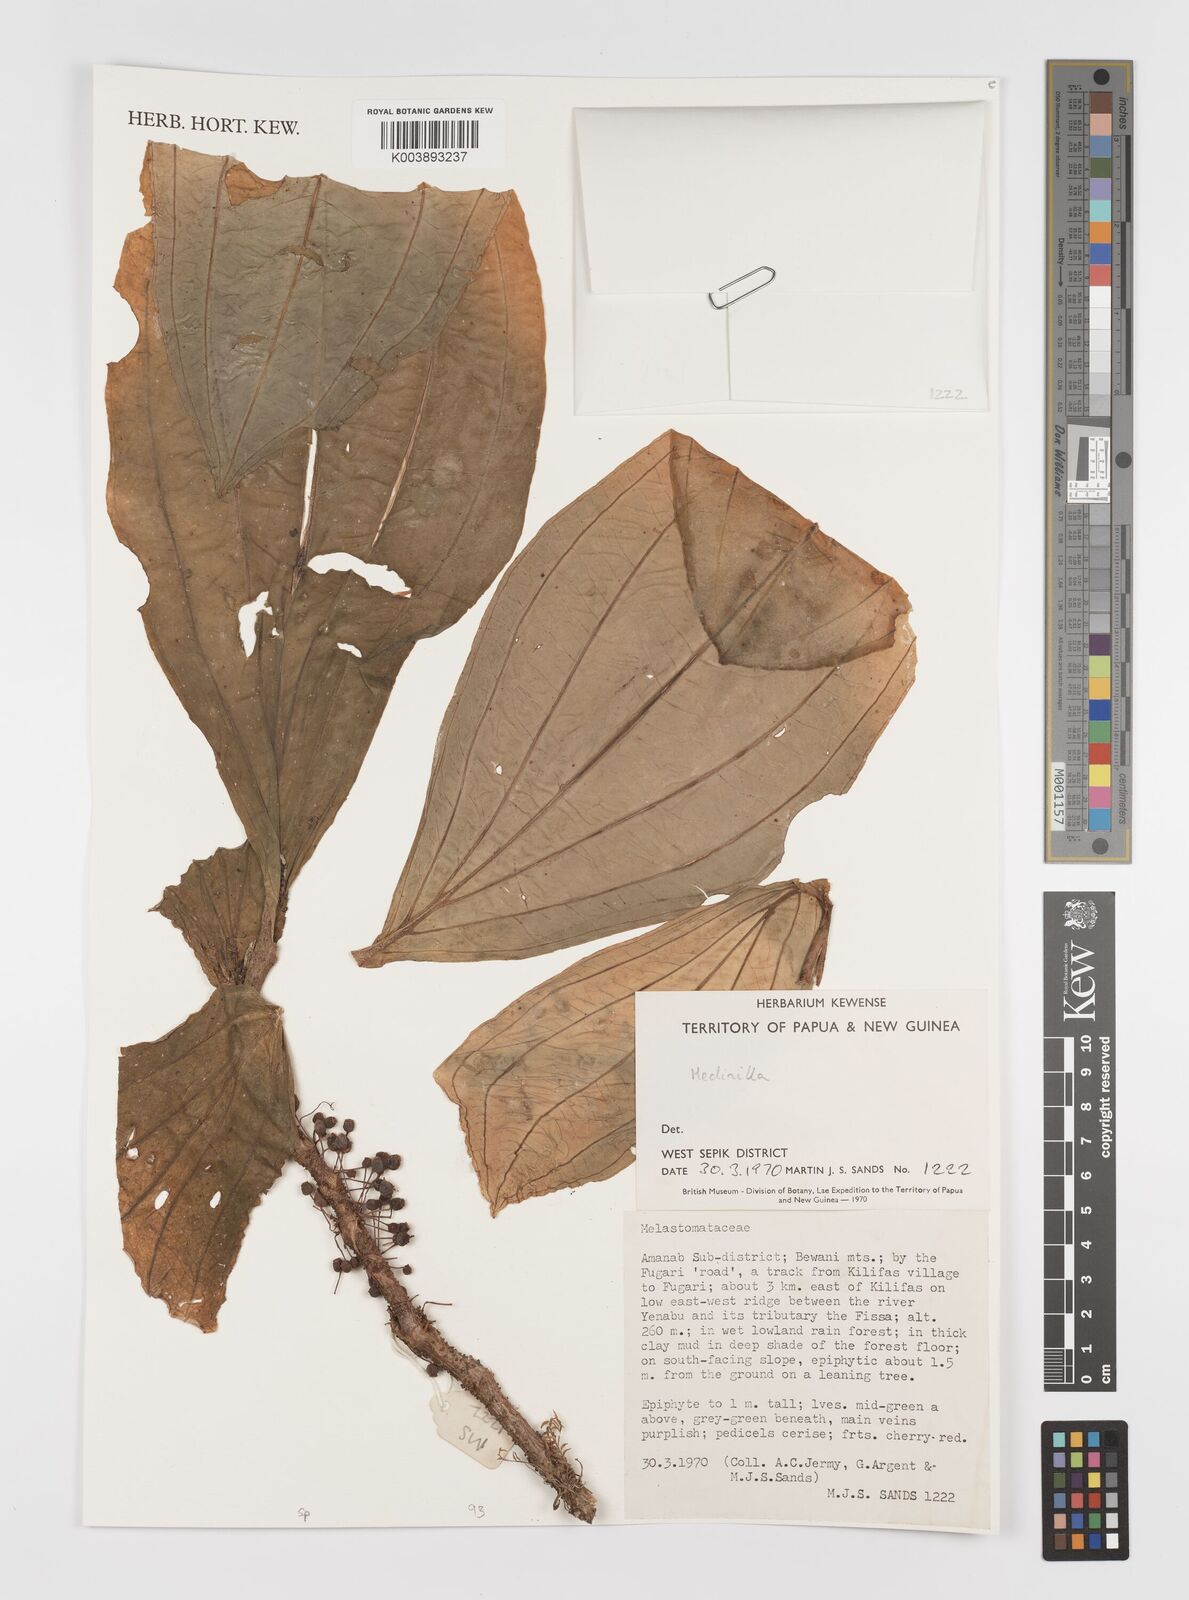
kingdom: Plantae
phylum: Tracheophyta
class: Magnoliopsida
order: Myrtales
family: Melastomataceae
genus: Medinilla
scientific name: Medinilla
